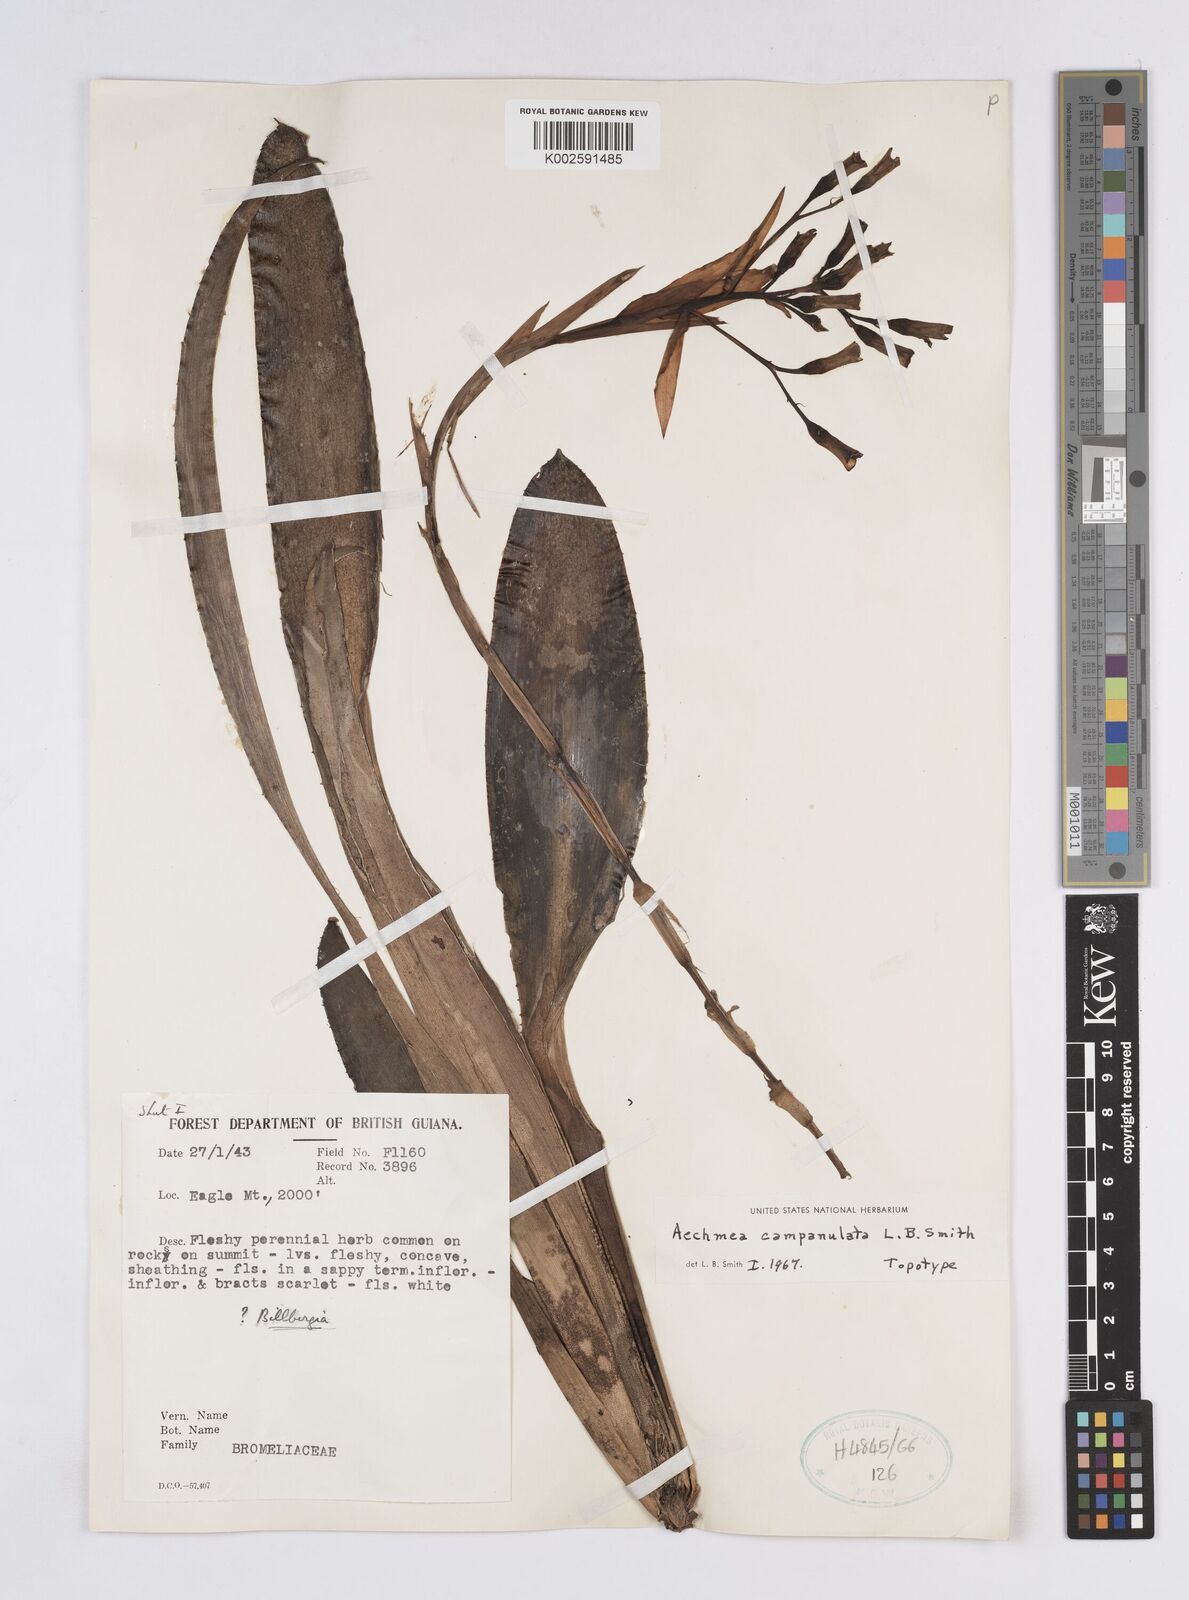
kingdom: Plantae
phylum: Tracheophyta
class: Liliopsida
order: Poales
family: Bromeliaceae
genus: Aechmea
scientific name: Aechmea campanulata
